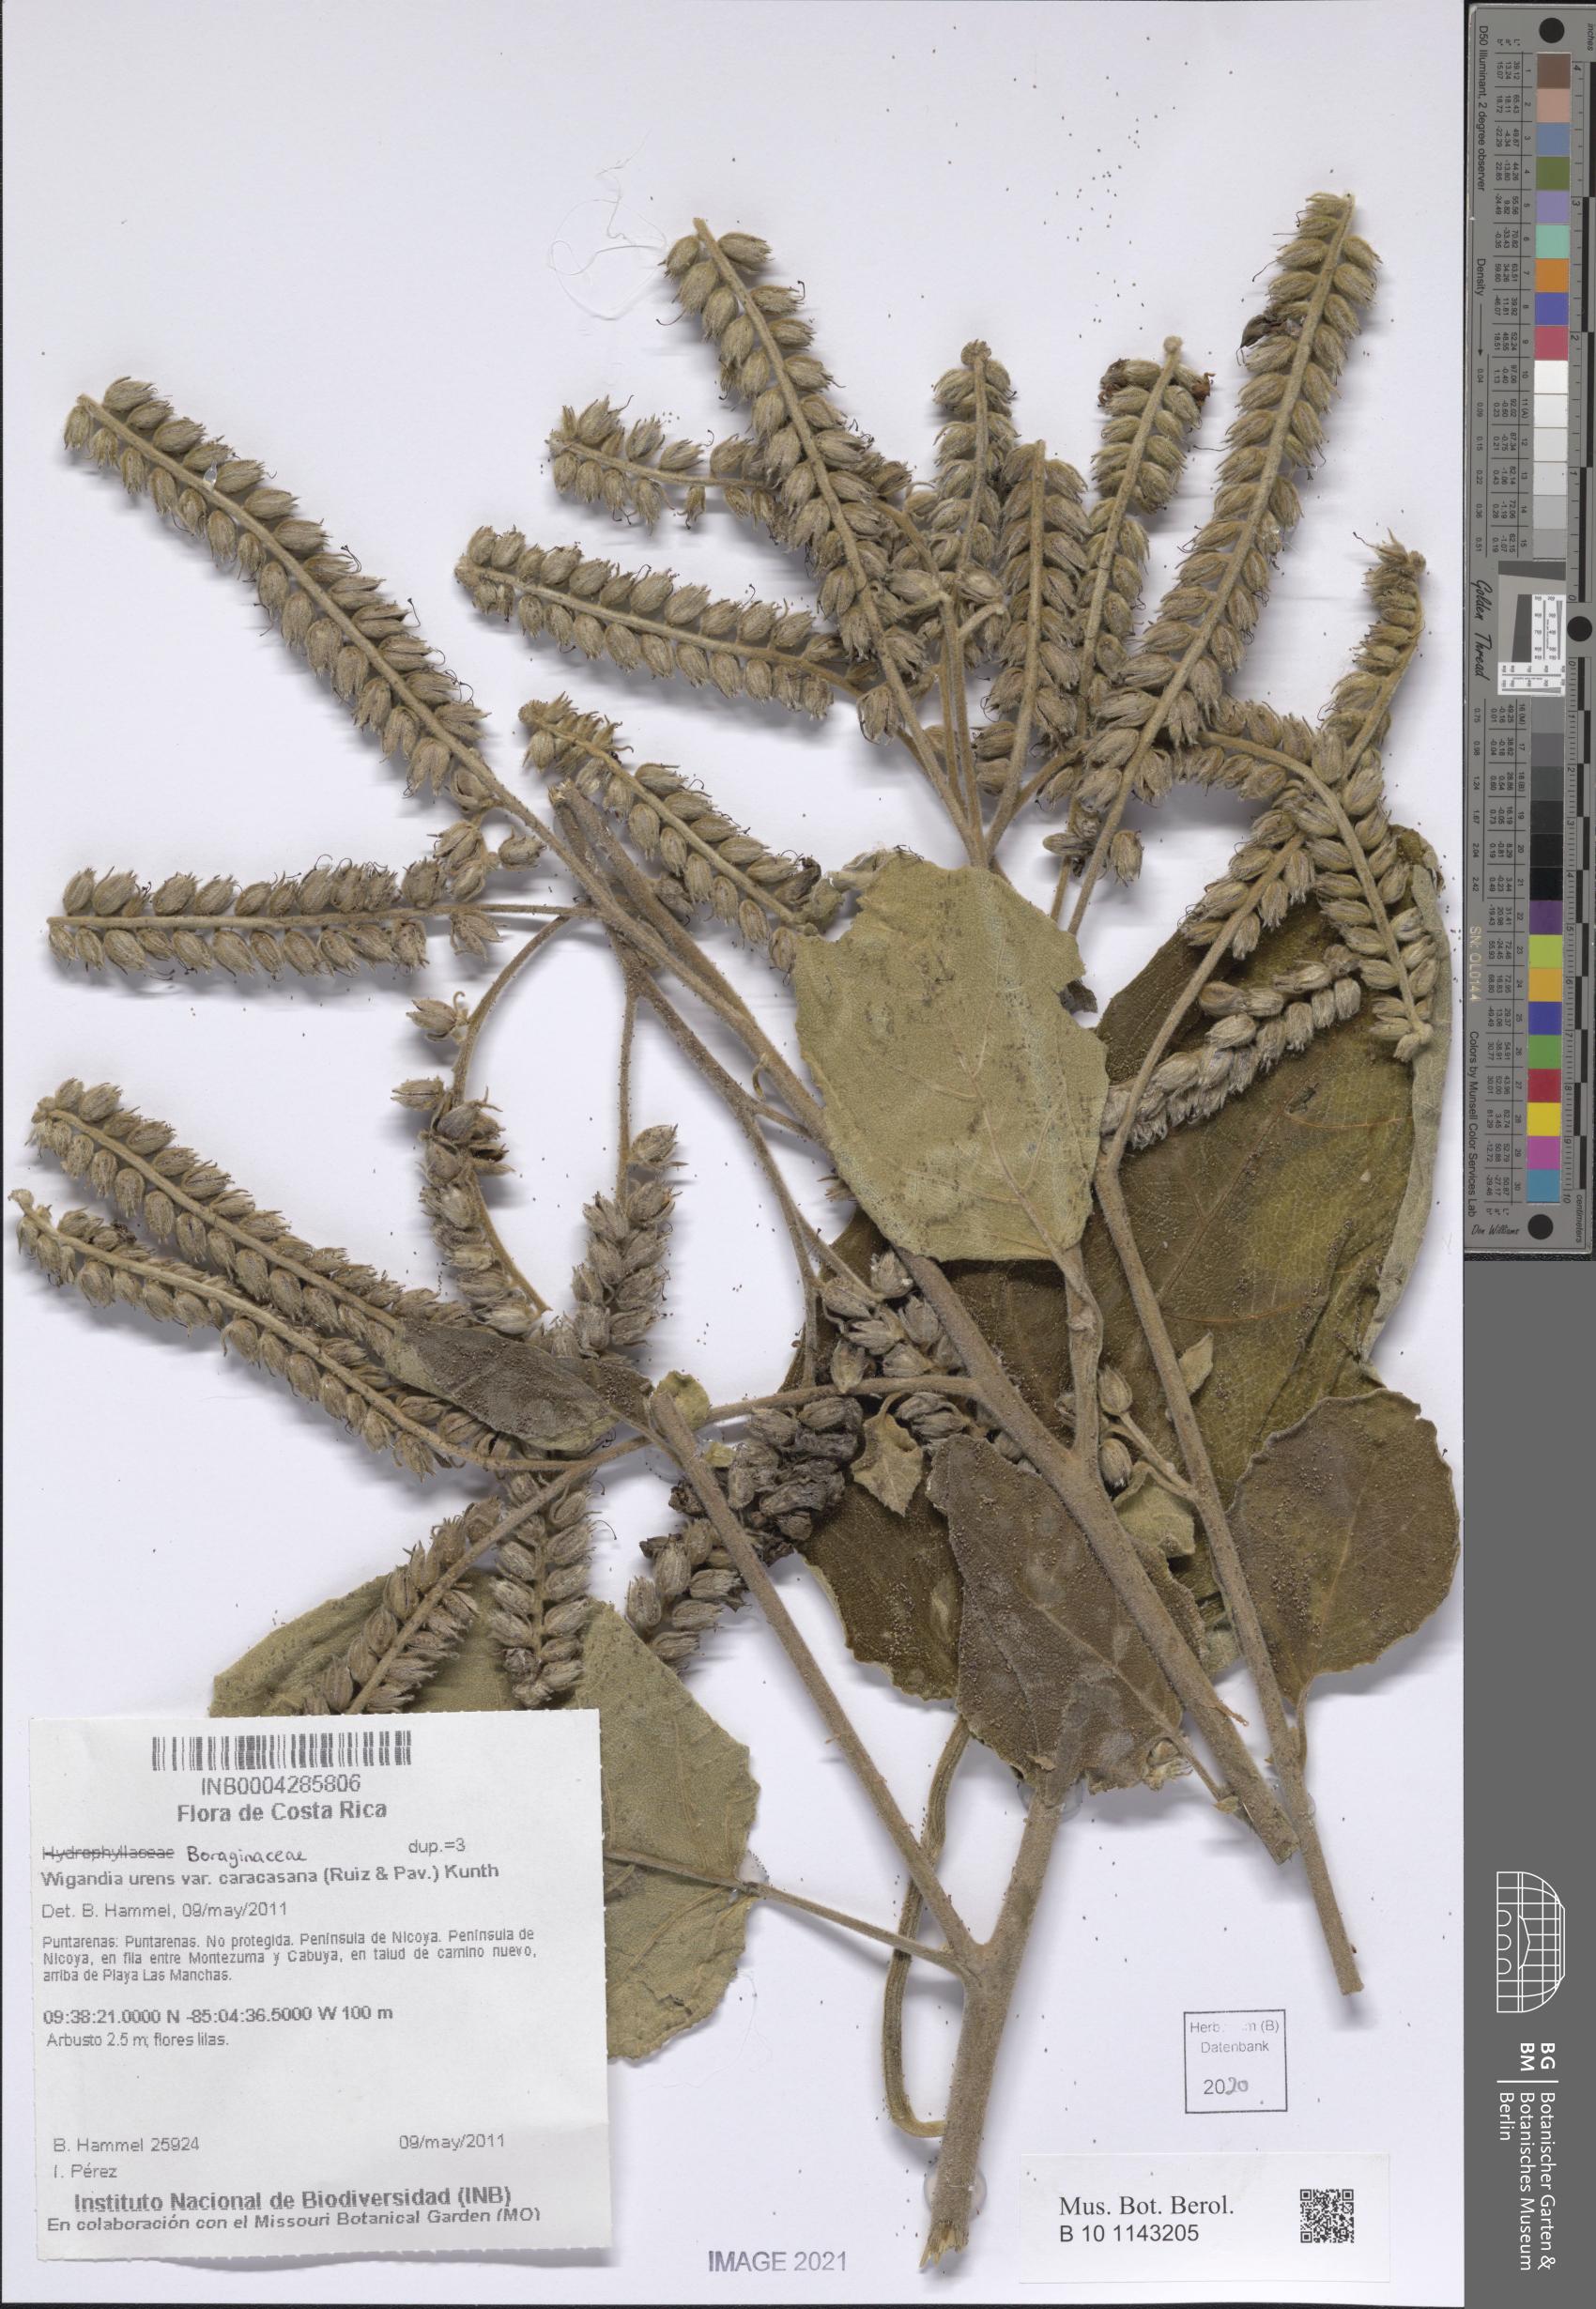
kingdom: Plantae
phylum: Tracheophyta
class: Magnoliopsida
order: Boraginales
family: Namaceae
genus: Wigandia
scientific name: Wigandia urens
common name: Caracus wigandia
